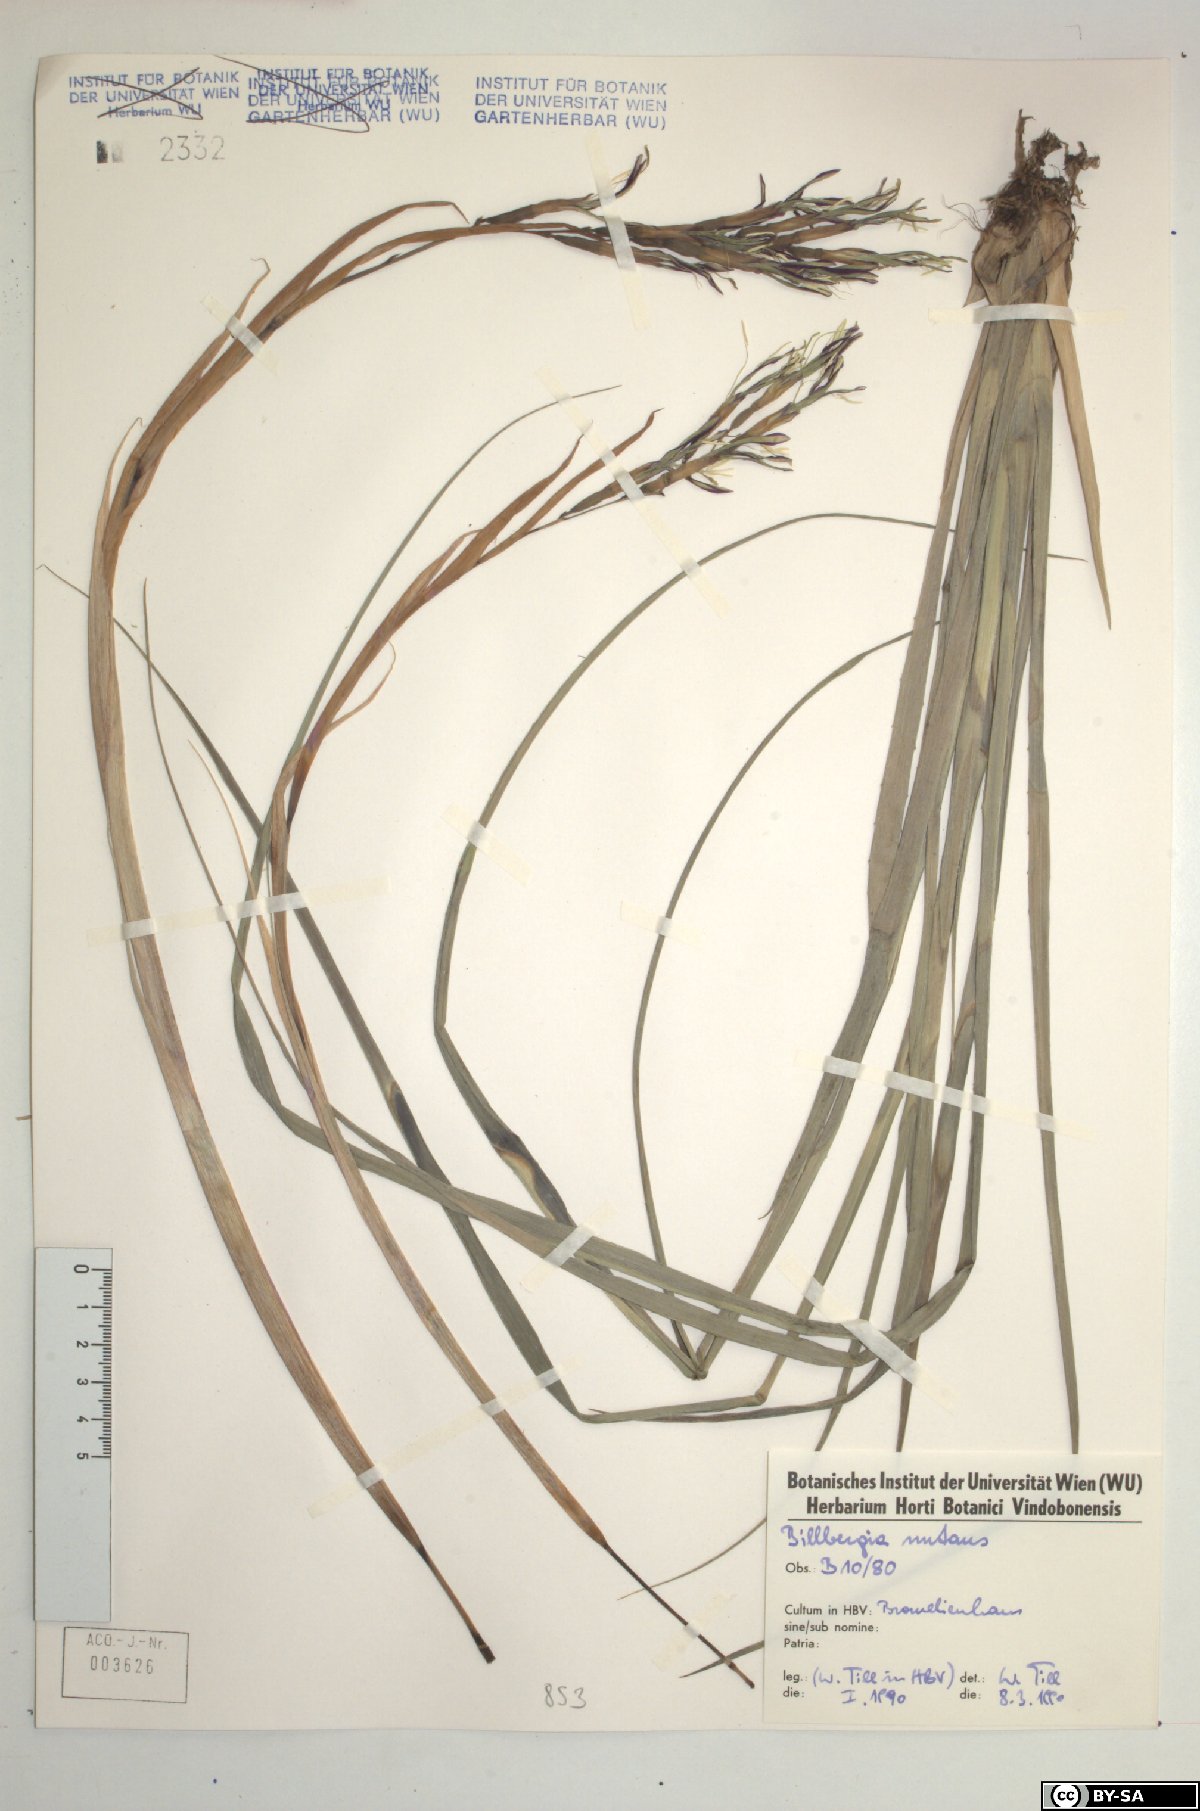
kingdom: Plantae
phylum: Tracheophyta
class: Liliopsida
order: Poales
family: Bromeliaceae
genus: Billbergia
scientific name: Billbergia nutans
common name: Friendship-plant
